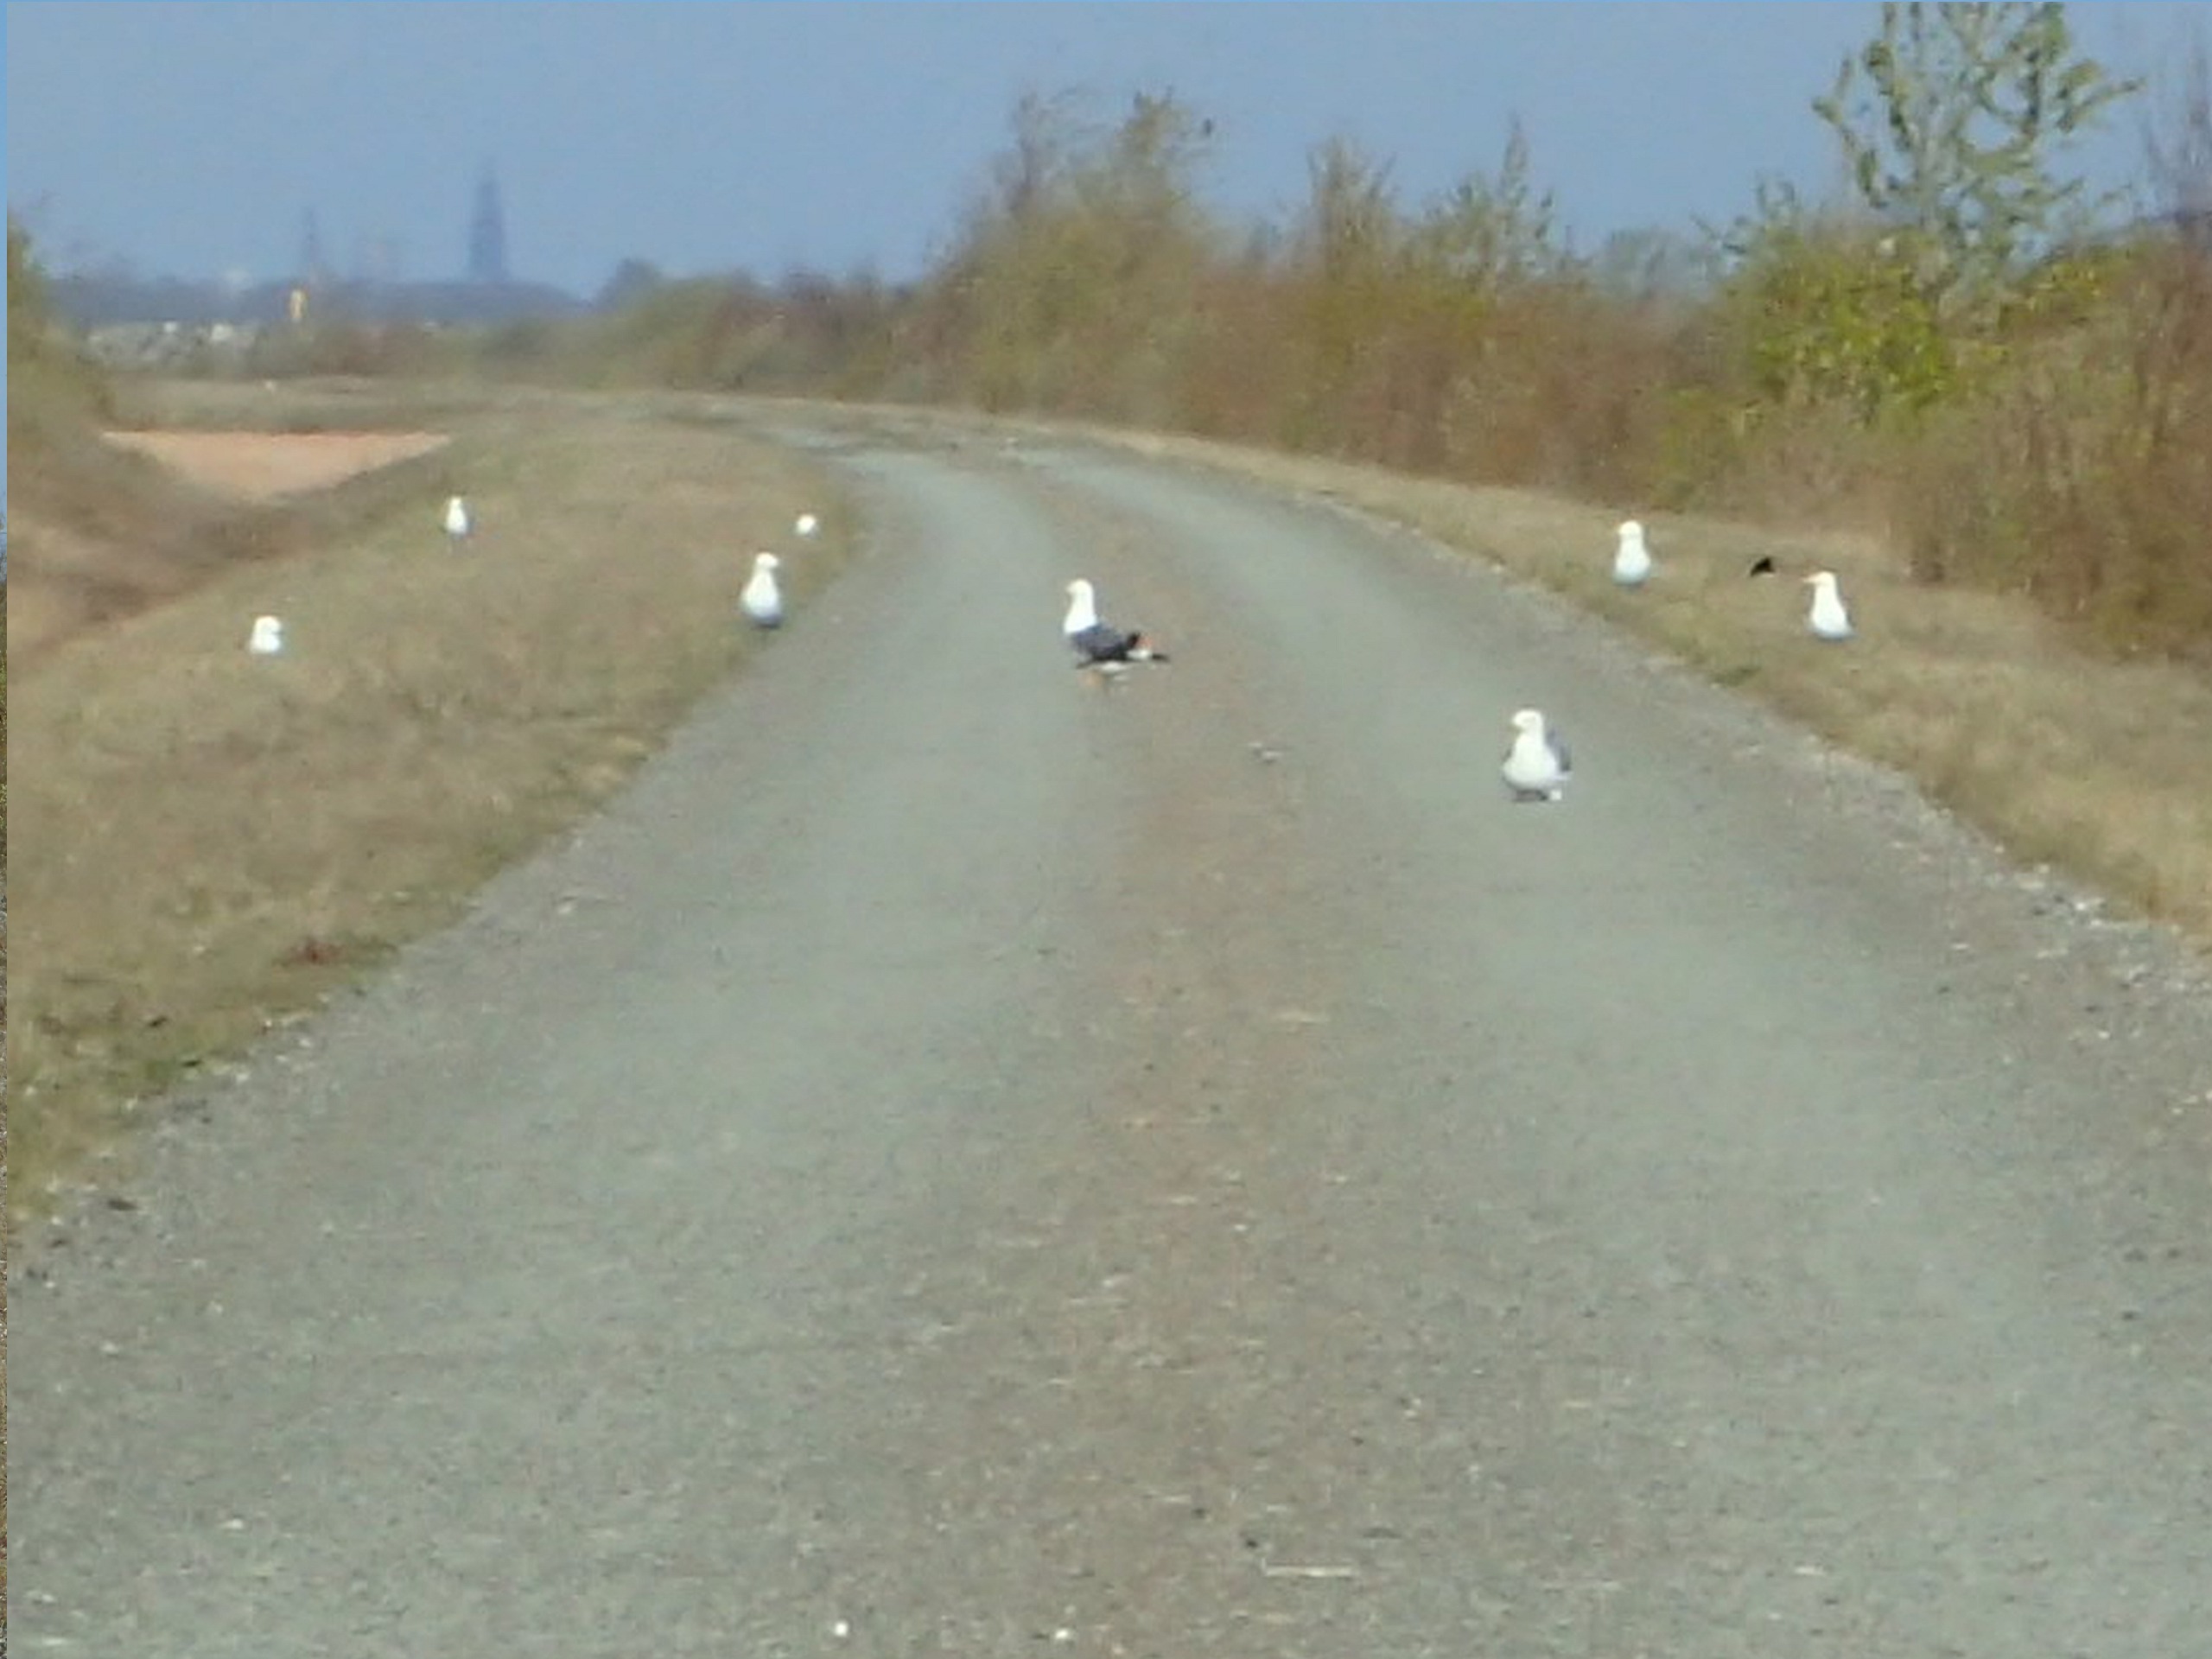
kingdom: Animalia
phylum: Chordata
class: Aves
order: Charadriiformes
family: Laridae
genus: Larus
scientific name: Larus fuscus
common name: Sildemåge
